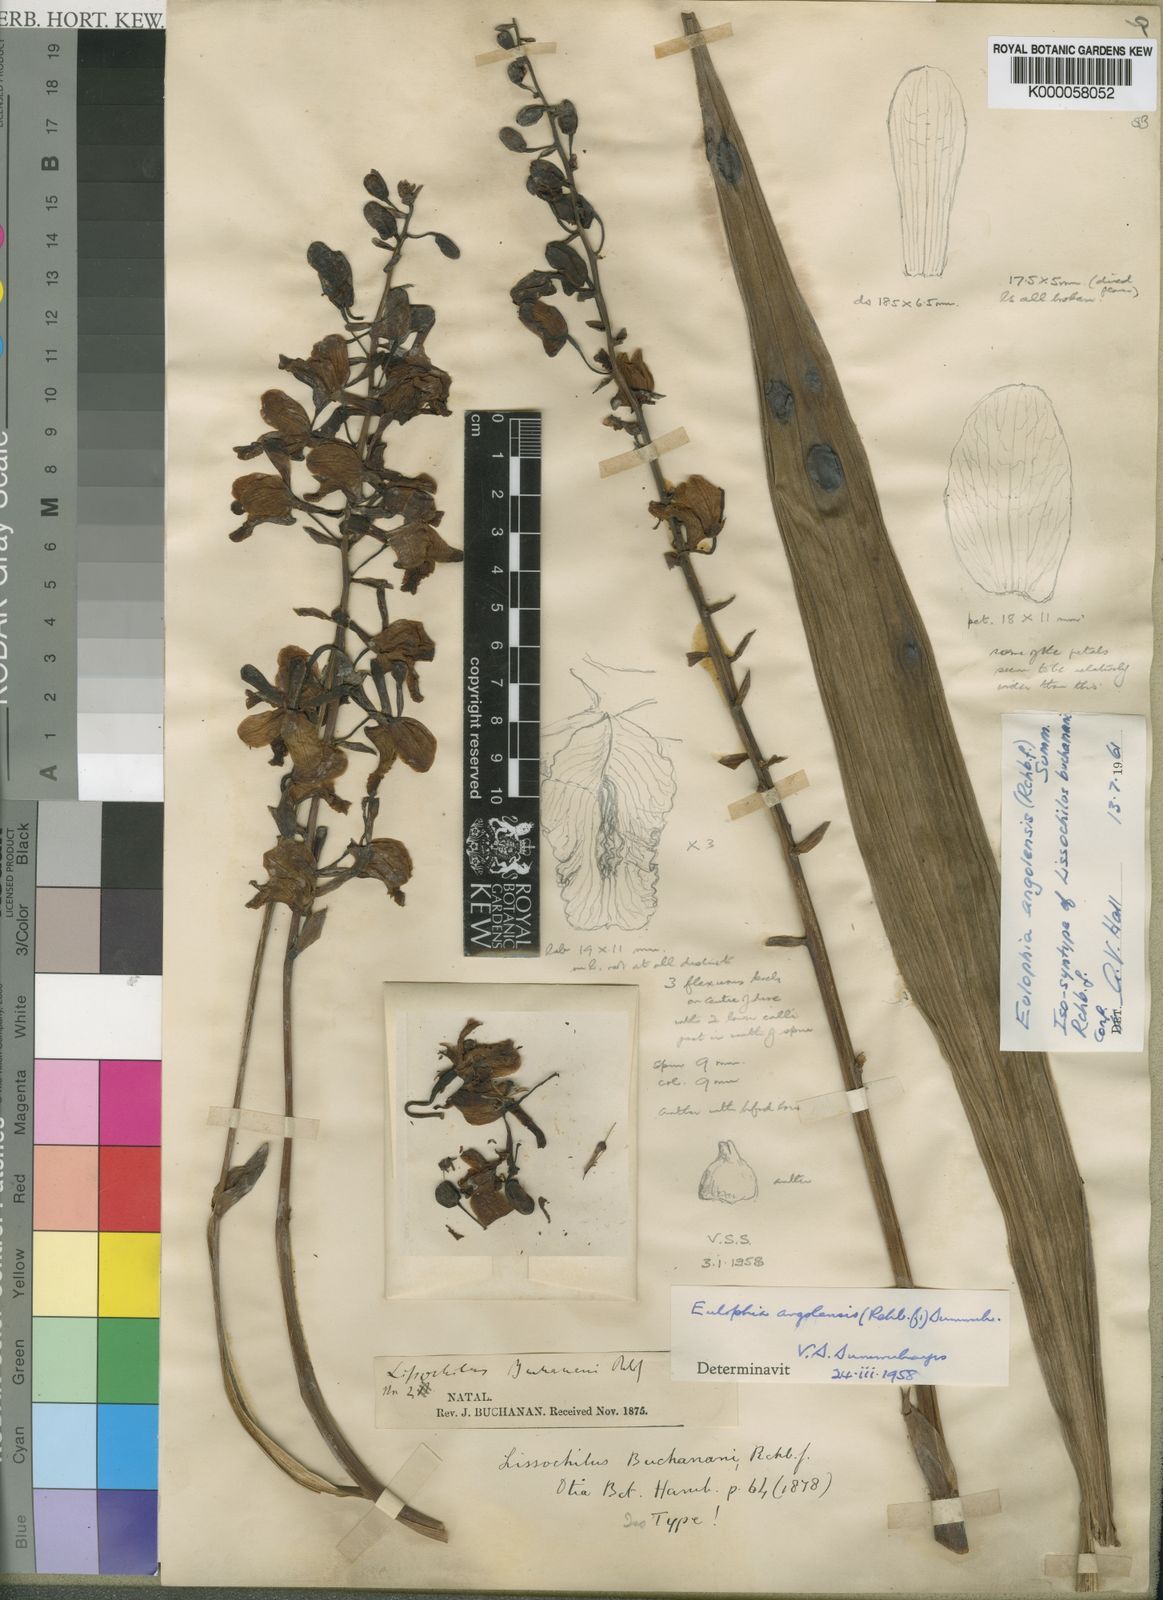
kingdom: Plantae
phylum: Tracheophyta
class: Liliopsida
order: Asparagales
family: Orchidaceae
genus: Eulophia
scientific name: Eulophia angolensis
